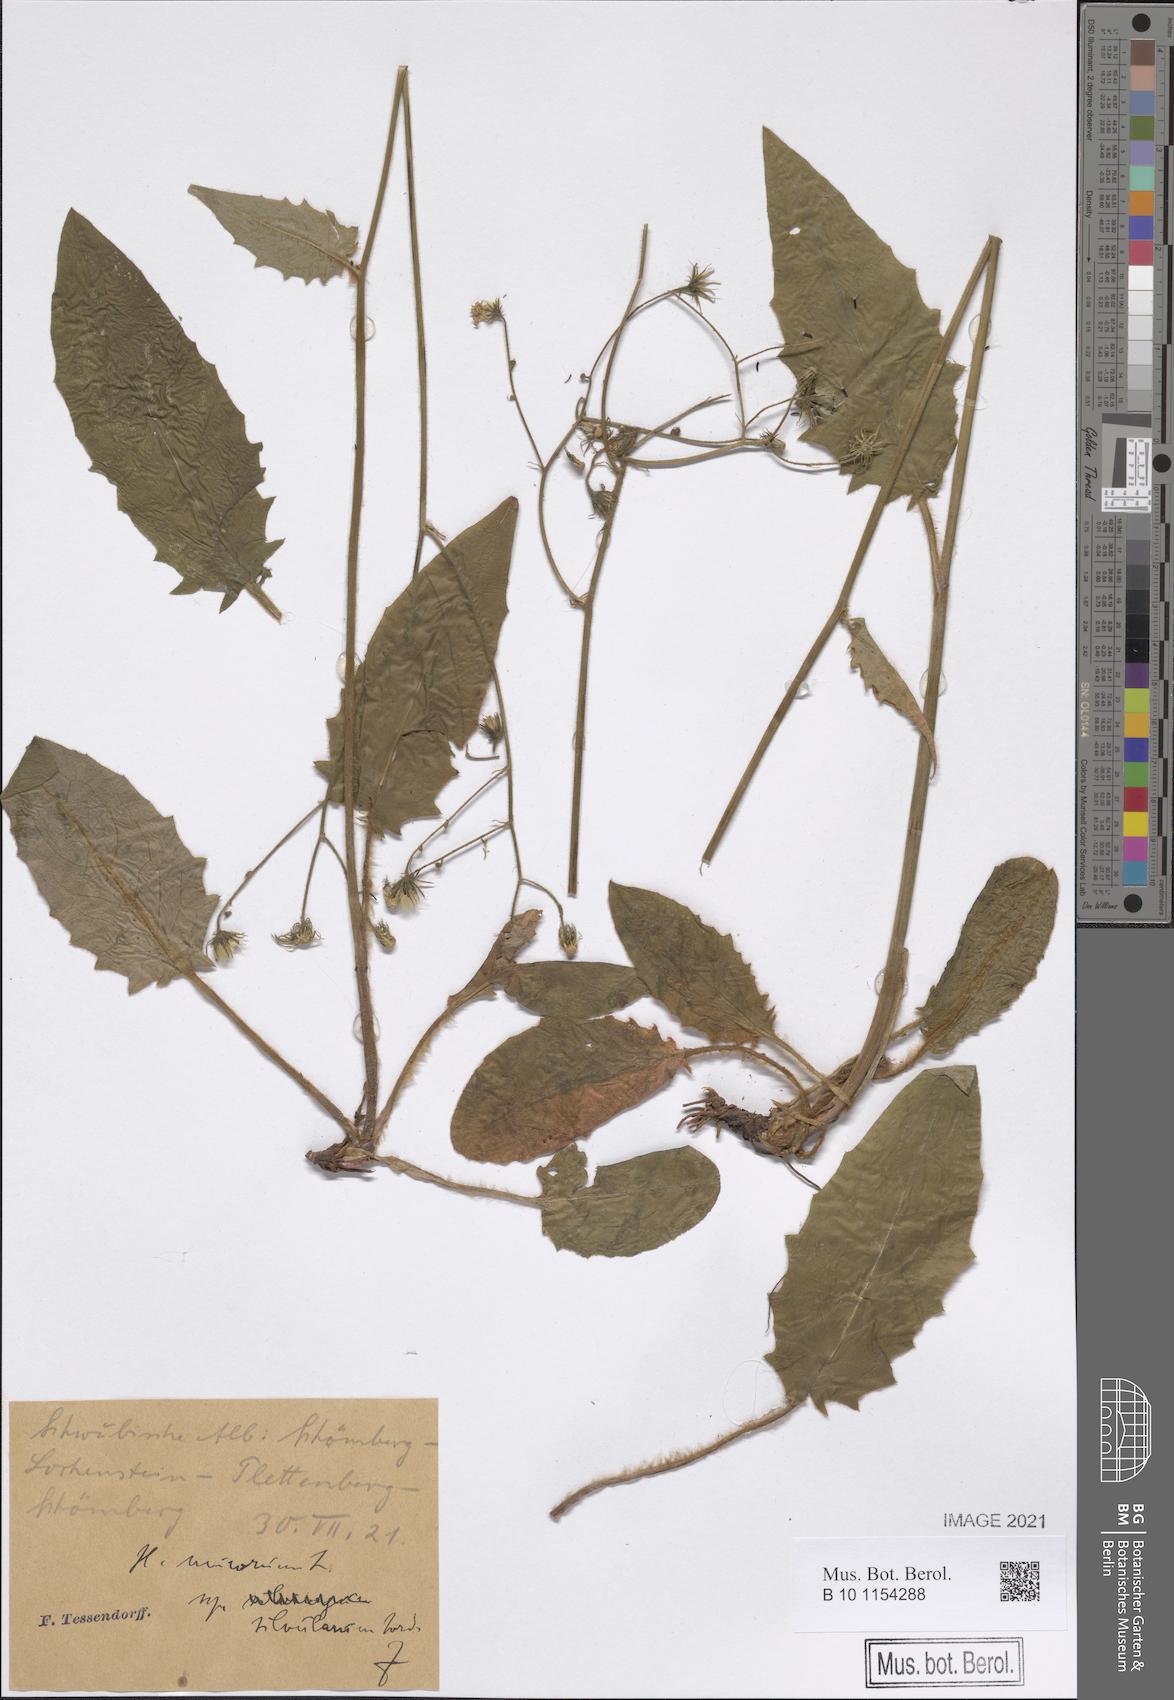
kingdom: Plantae
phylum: Tracheophyta
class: Magnoliopsida
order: Asterales
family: Asteraceae
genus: Hieracium
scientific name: Hieracium murorum
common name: Wall hawkweed
